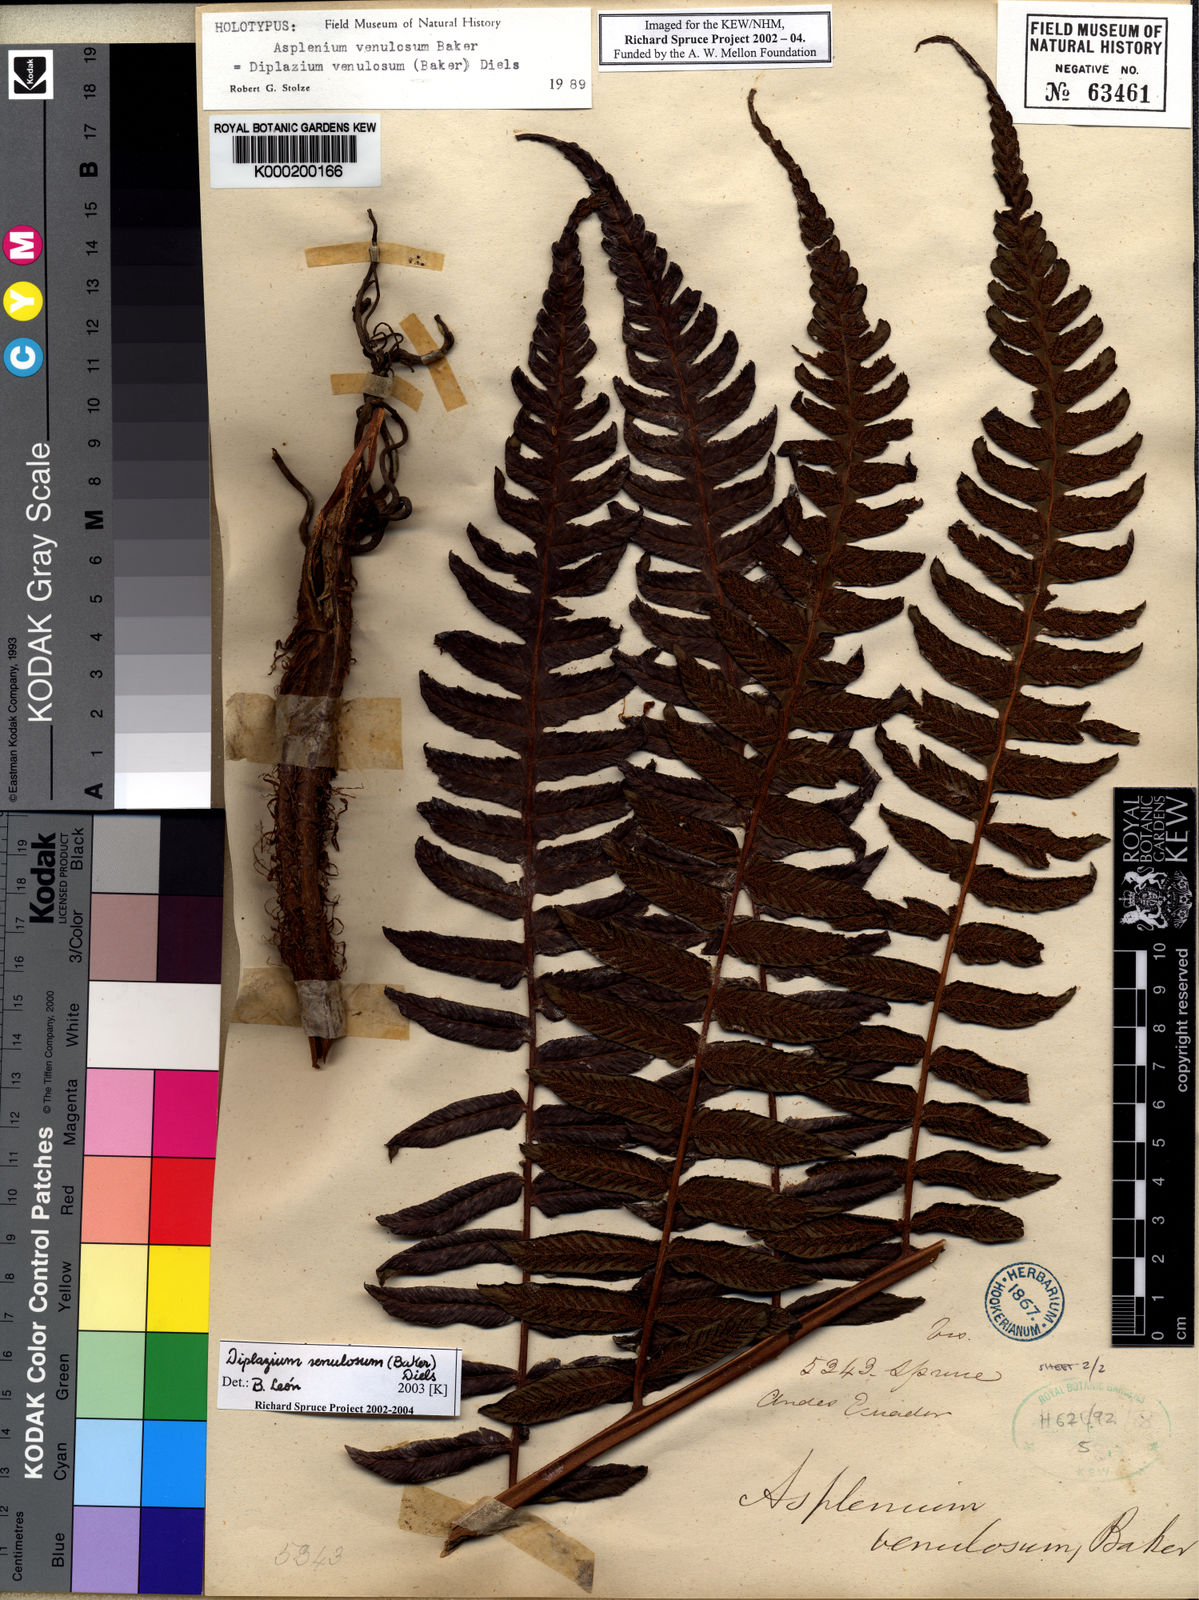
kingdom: Plantae
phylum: Tracheophyta
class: Polypodiopsida
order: Polypodiales
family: Athyriaceae
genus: Diplazium
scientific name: Diplazium venulosum
